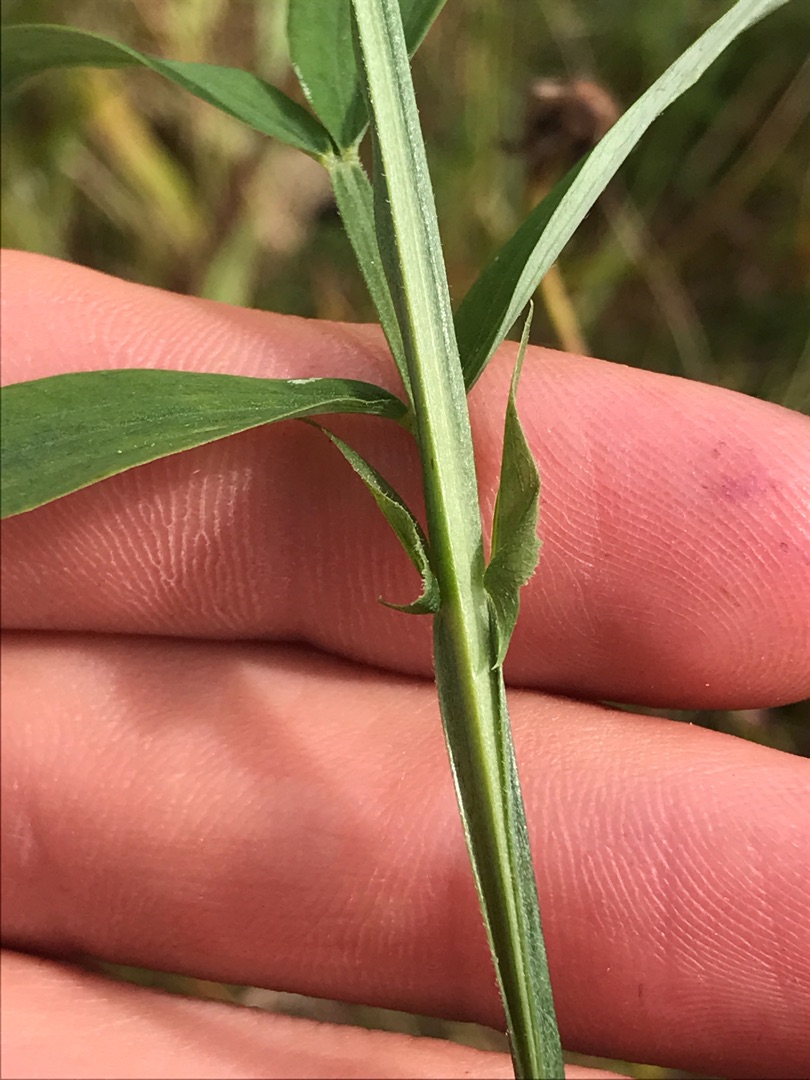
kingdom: Plantae
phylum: Tracheophyta
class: Magnoliopsida
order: Fabales
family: Fabaceae
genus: Lathyrus
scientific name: Lathyrus linifolius
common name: Krat-fladbælg
